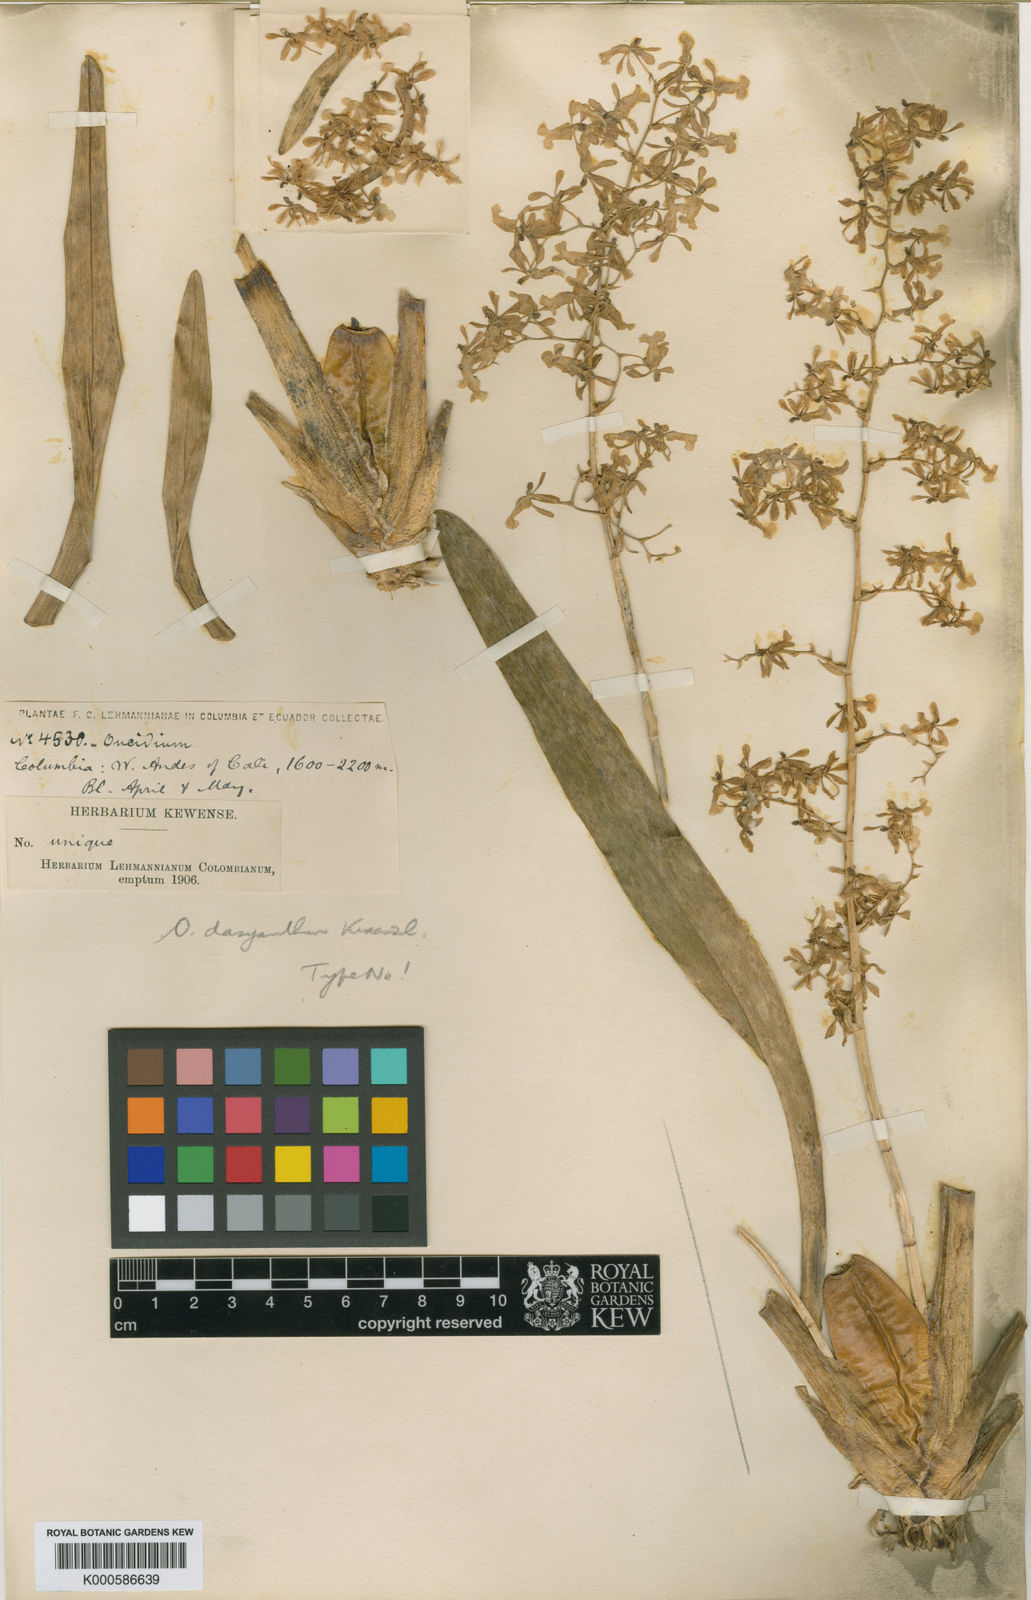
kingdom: Plantae
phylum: Tracheophyta
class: Liliopsida
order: Asparagales
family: Orchidaceae
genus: Oncidium
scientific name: Oncidium chrysomorphum
